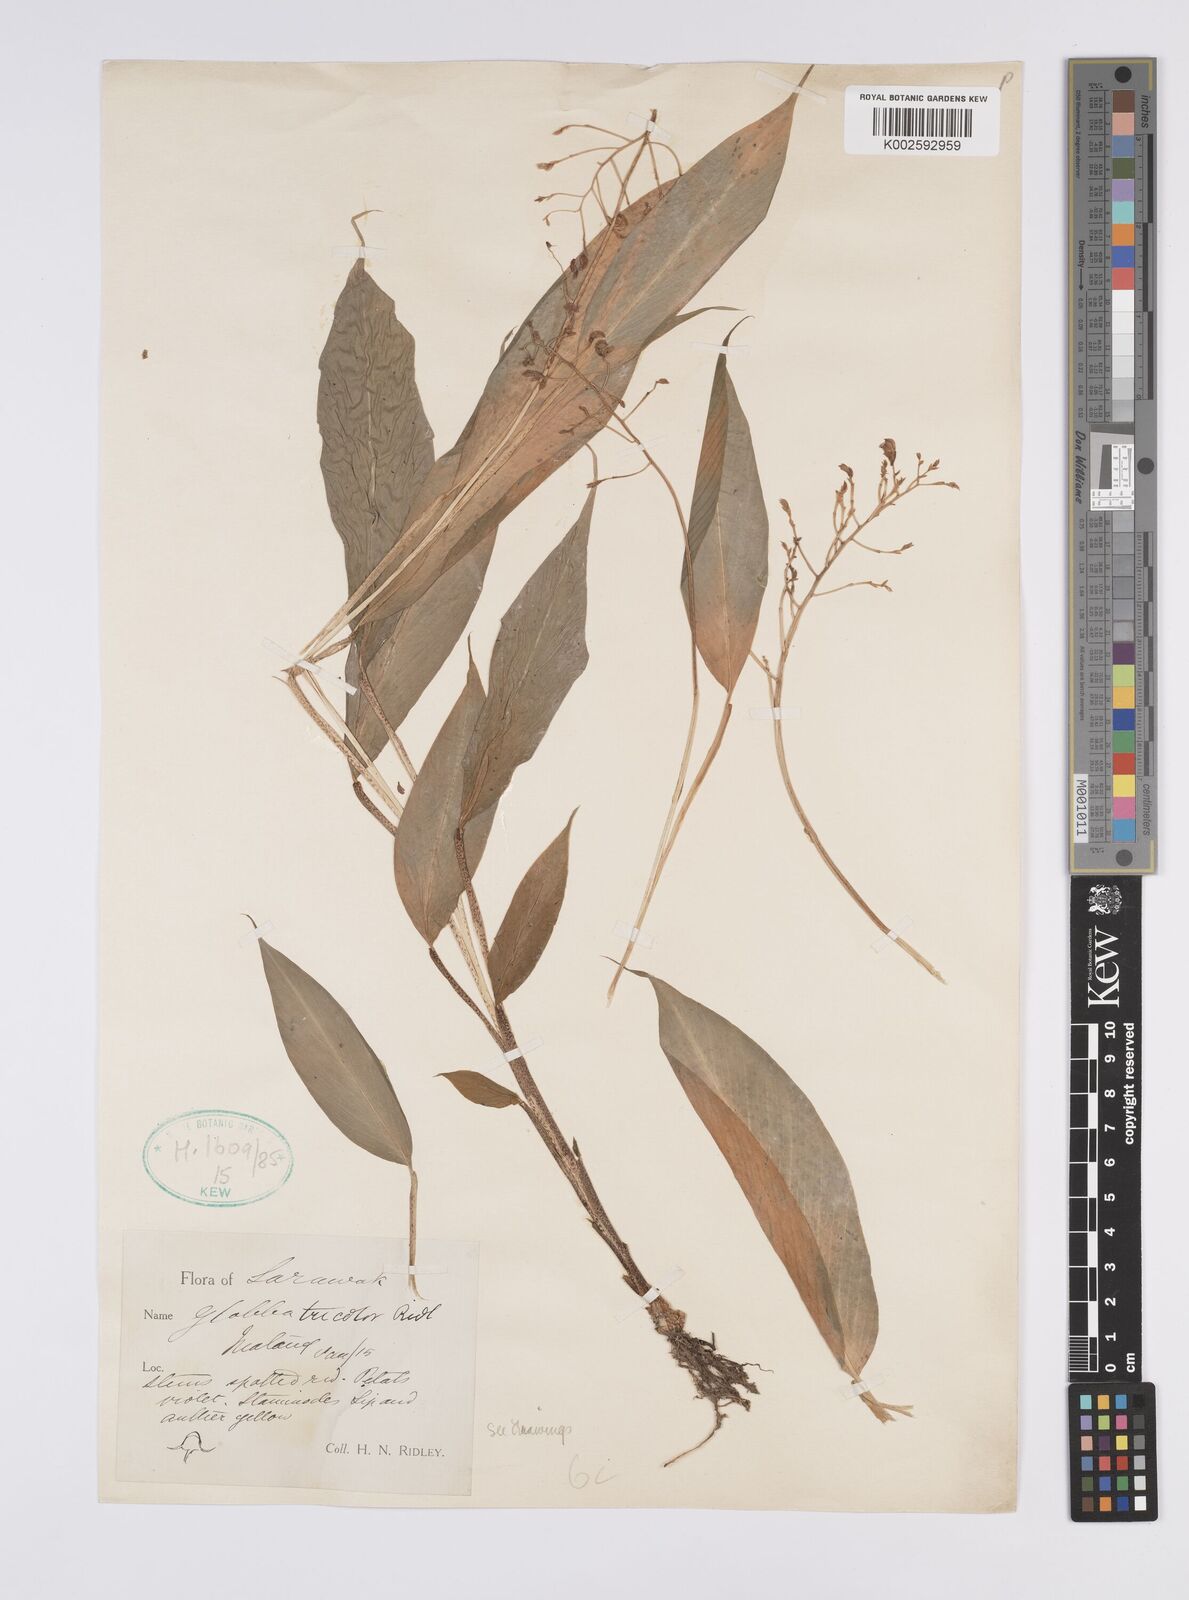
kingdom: Plantae
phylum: Tracheophyta
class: Liliopsida
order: Zingiberales
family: Zingiberaceae
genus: Globba
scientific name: Globba tricolor
